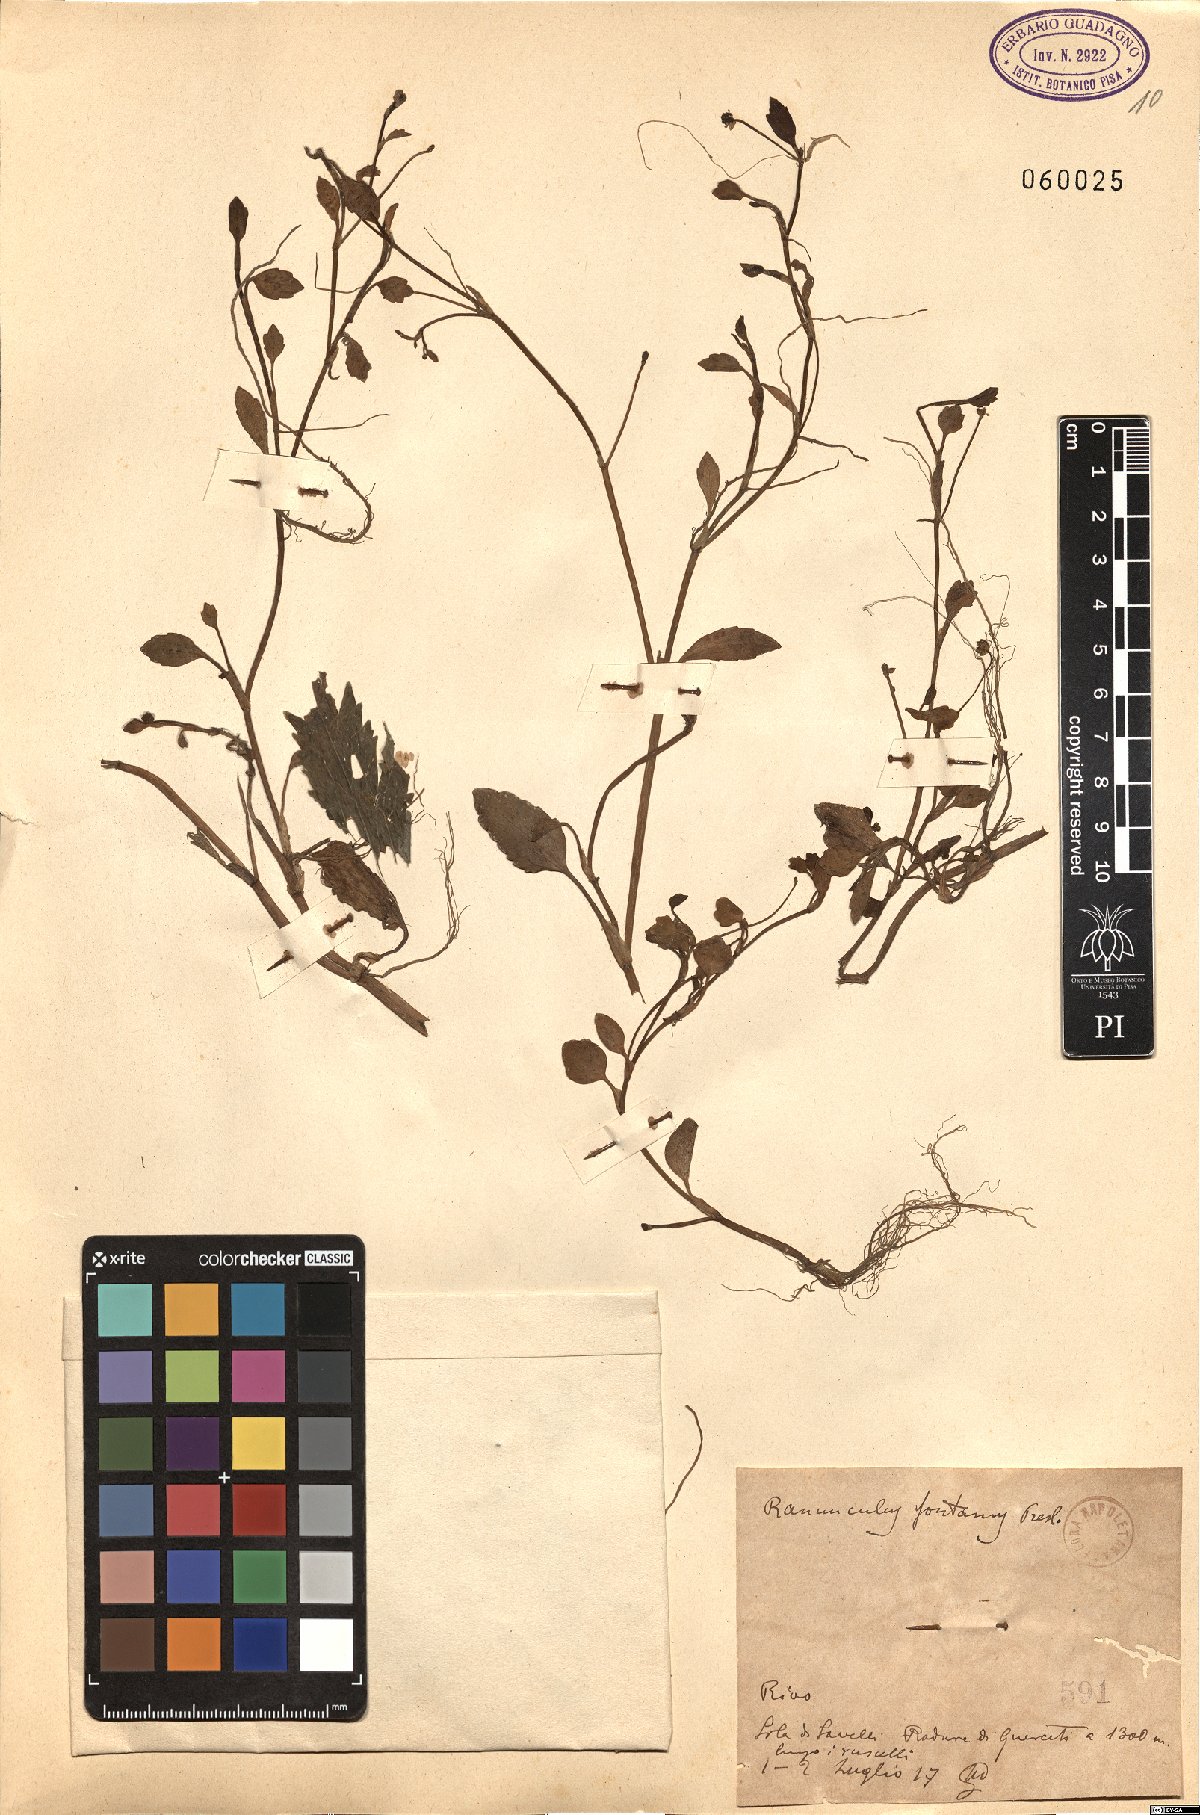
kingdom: Plantae
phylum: Tracheophyta
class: Magnoliopsida
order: Ranunculales
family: Ranunculaceae
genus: Ranunculus
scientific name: Ranunculus fontanus
